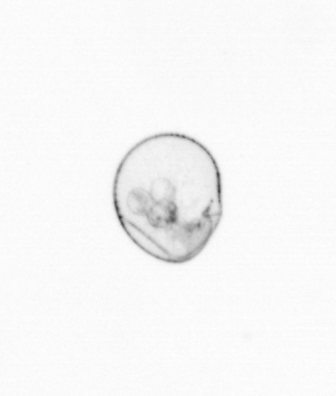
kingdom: Chromista
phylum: Myzozoa
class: Dinophyceae
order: Noctilucales
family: Noctilucaceae
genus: Noctiluca
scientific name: Noctiluca scintillans
